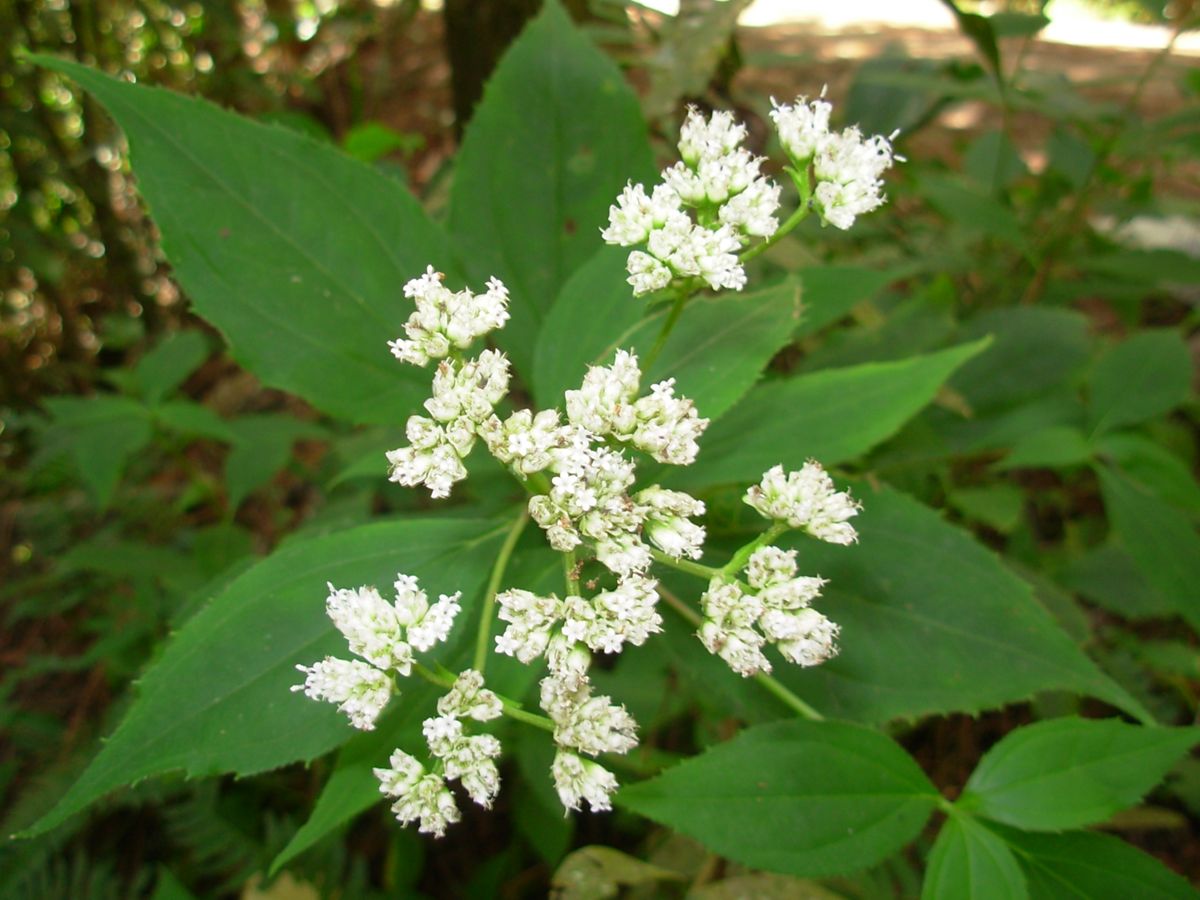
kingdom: Plantae
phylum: Tracheophyta
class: Magnoliopsida
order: Asterales
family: Asteraceae
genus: Desmanthodium
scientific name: Desmanthodium guatemalense
